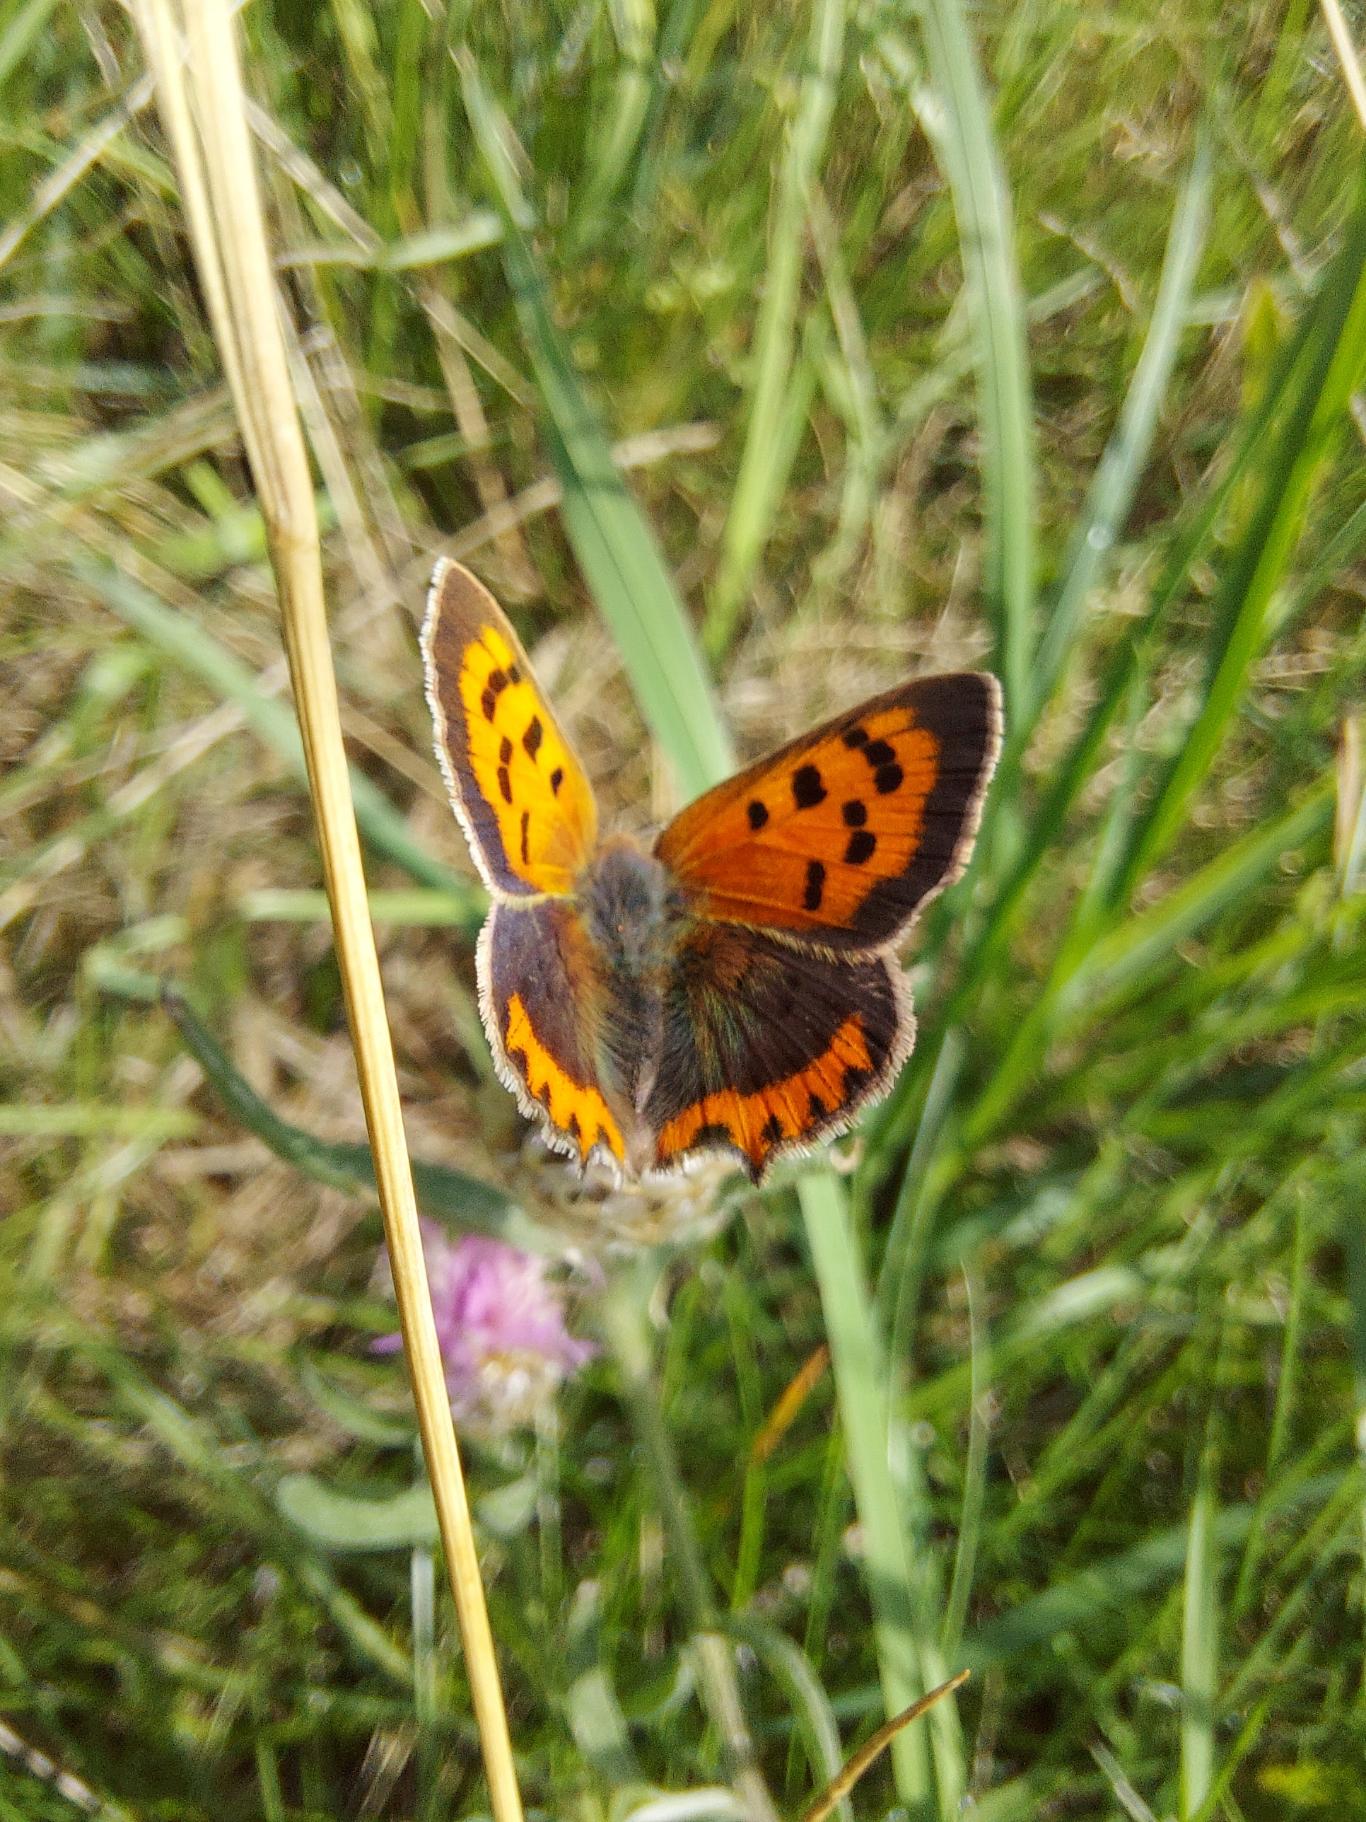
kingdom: Animalia
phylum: Arthropoda
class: Insecta
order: Lepidoptera
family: Lycaenidae
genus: Lycaena
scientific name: Lycaena phlaeas
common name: Lille ildfugl
